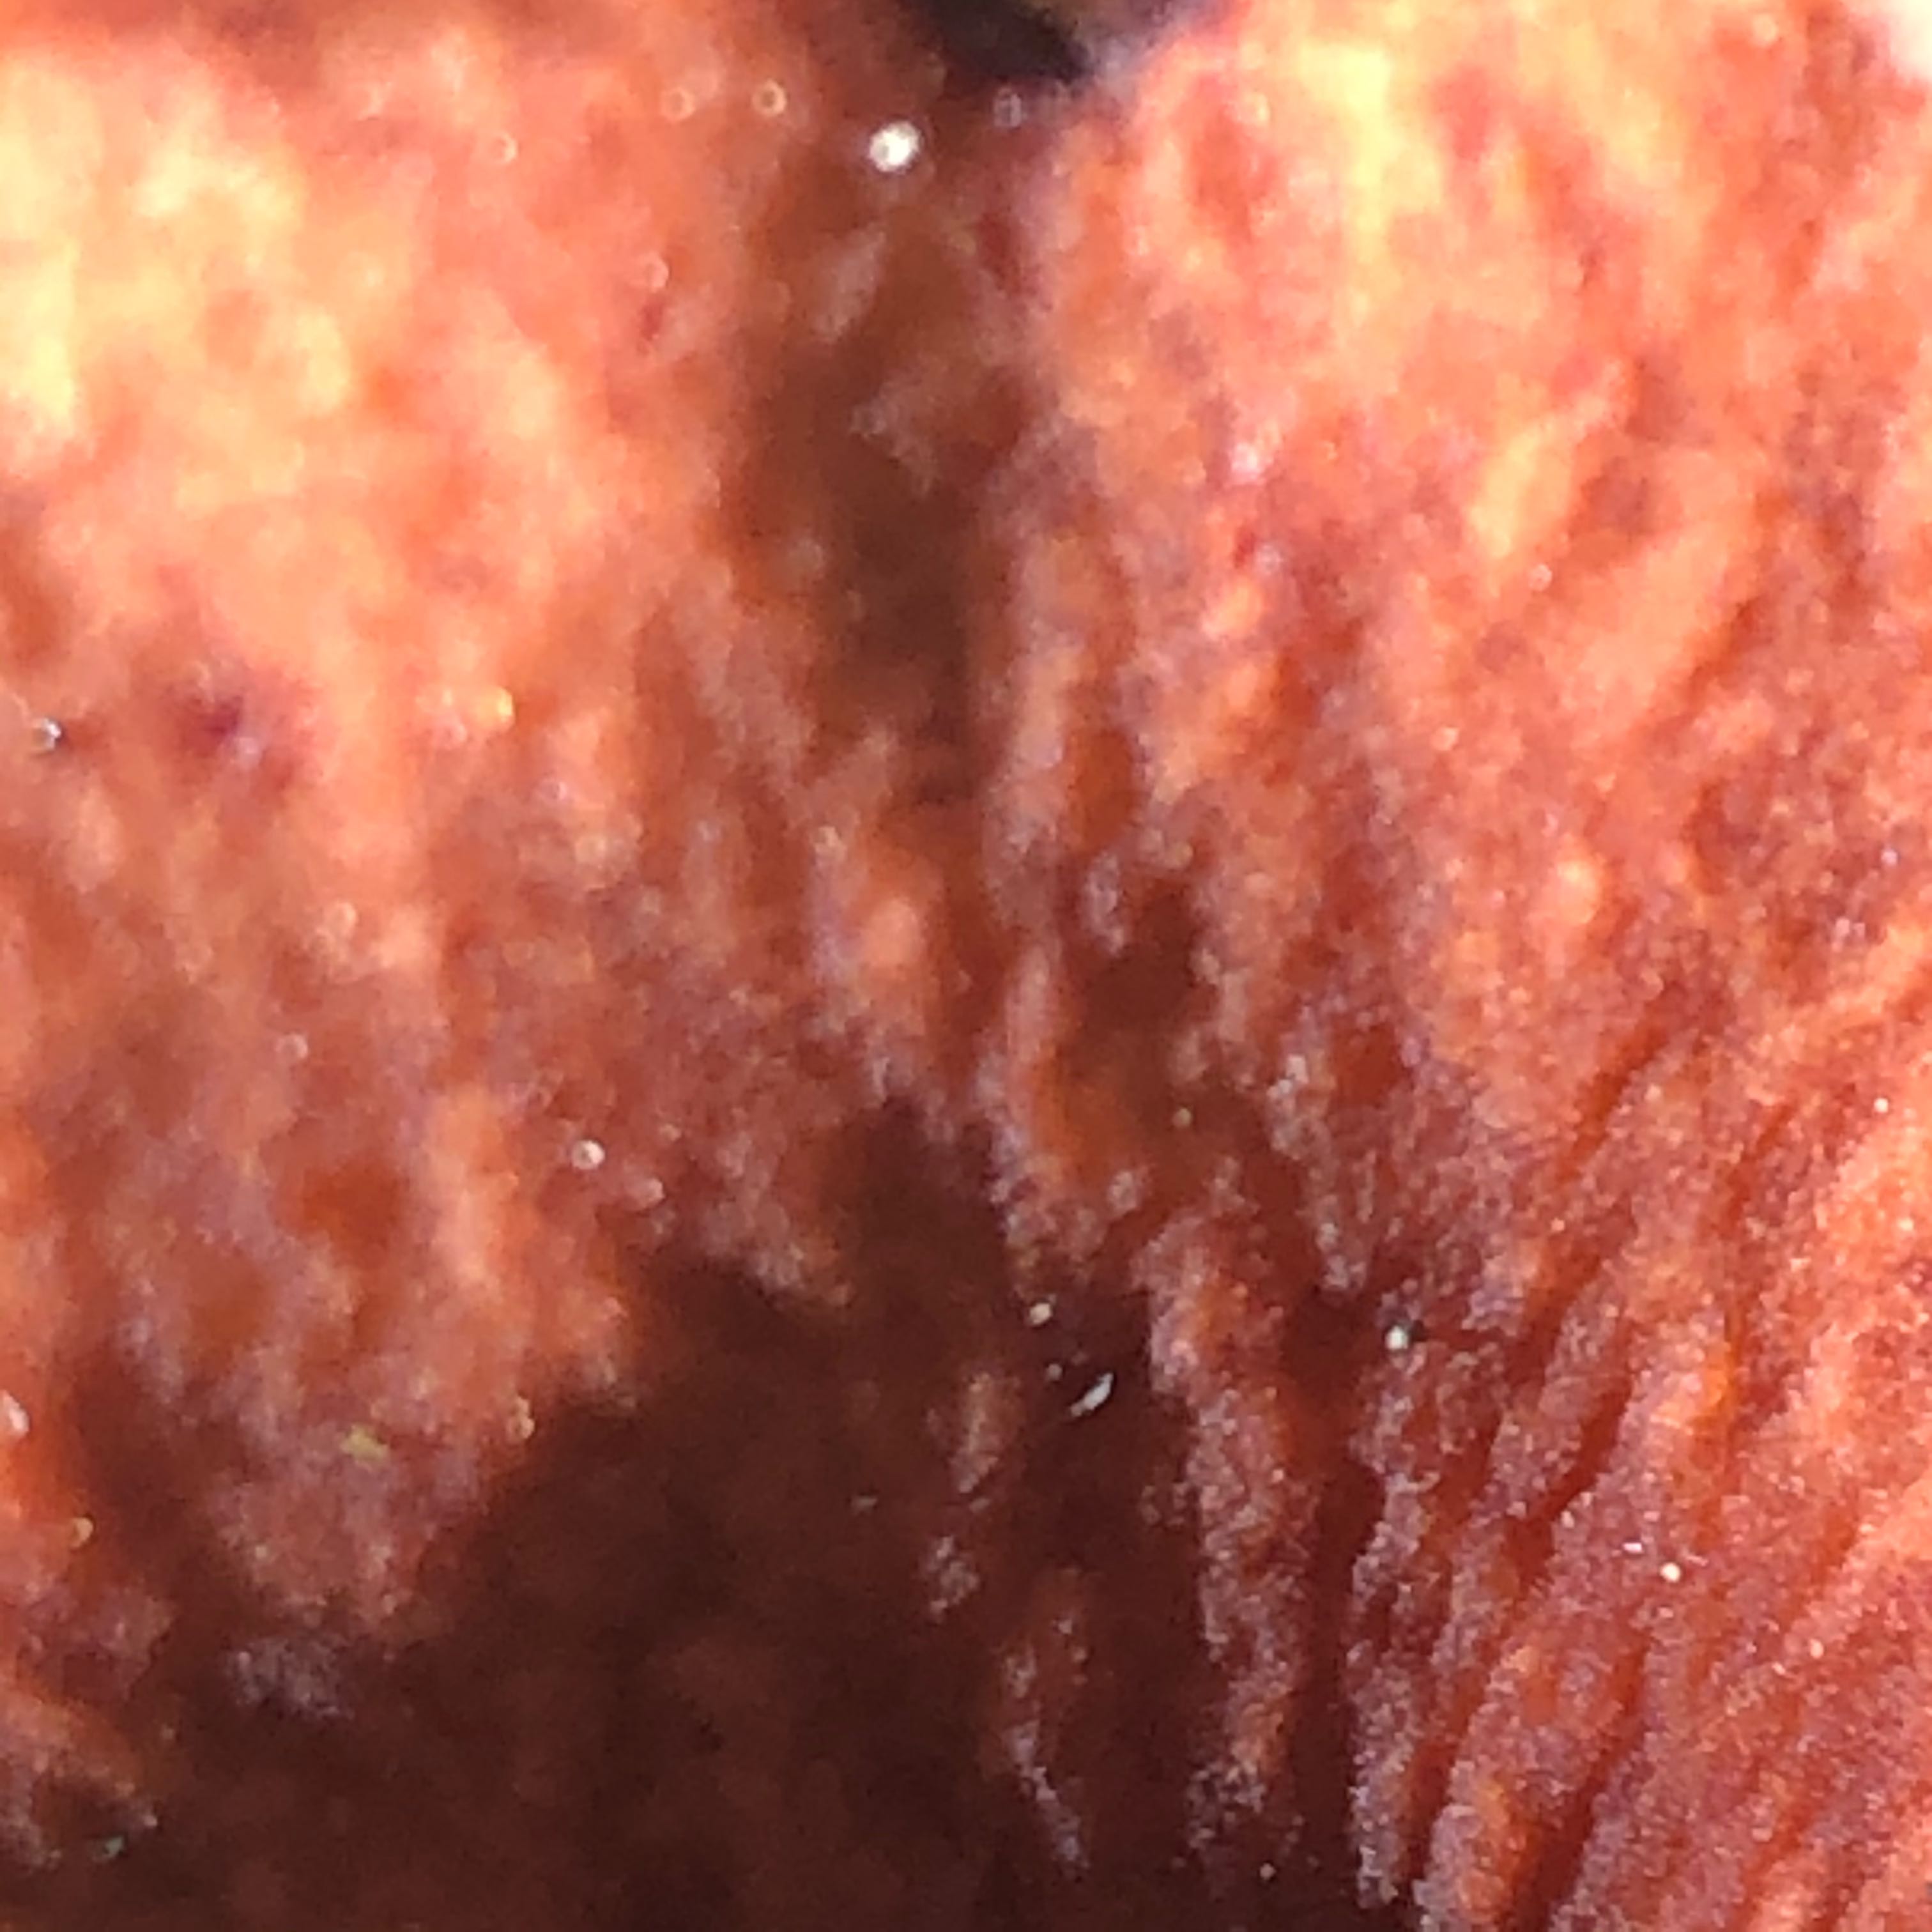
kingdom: Fungi
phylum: Basidiomycota
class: Agaricomycetes
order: Russulales
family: Russulaceae
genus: Lactarius
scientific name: Lactarius
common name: mælkehat
